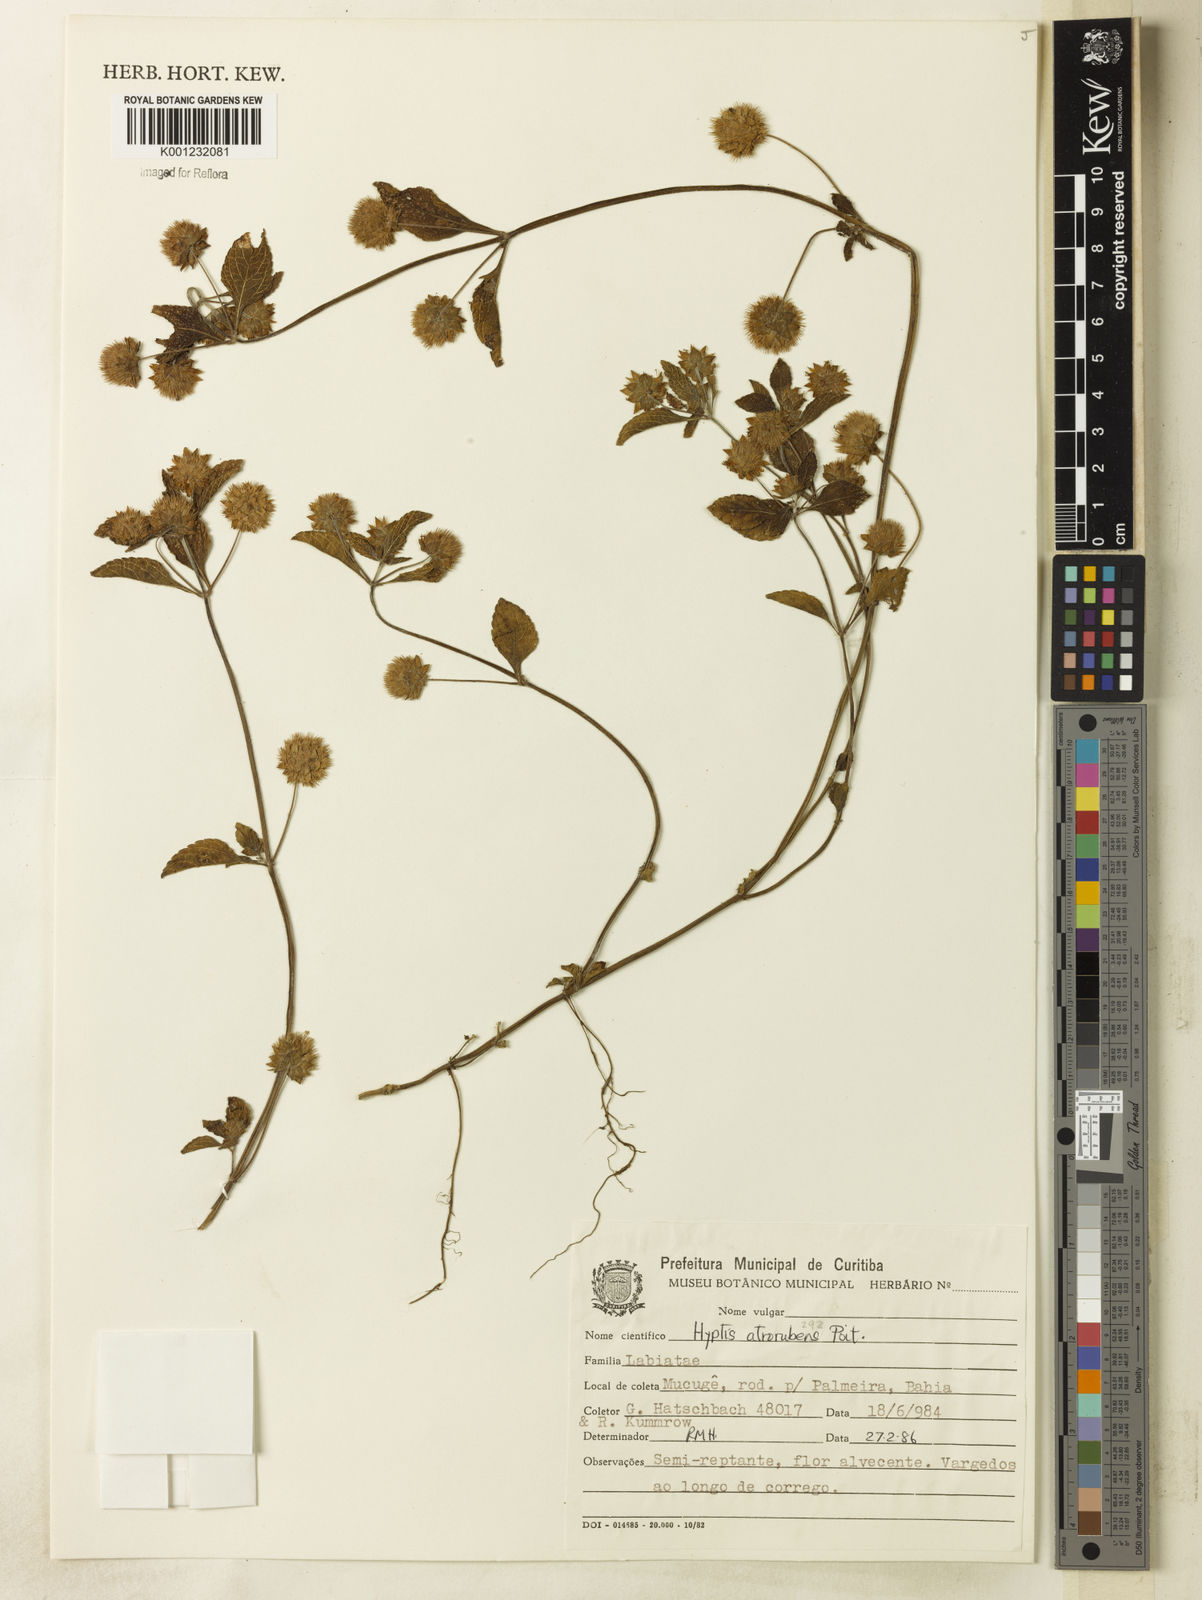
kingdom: Plantae
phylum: Tracheophyta
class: Magnoliopsida
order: Lamiales
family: Lamiaceae
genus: Hyptis
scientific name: Hyptis atrorubens
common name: Lanmant
